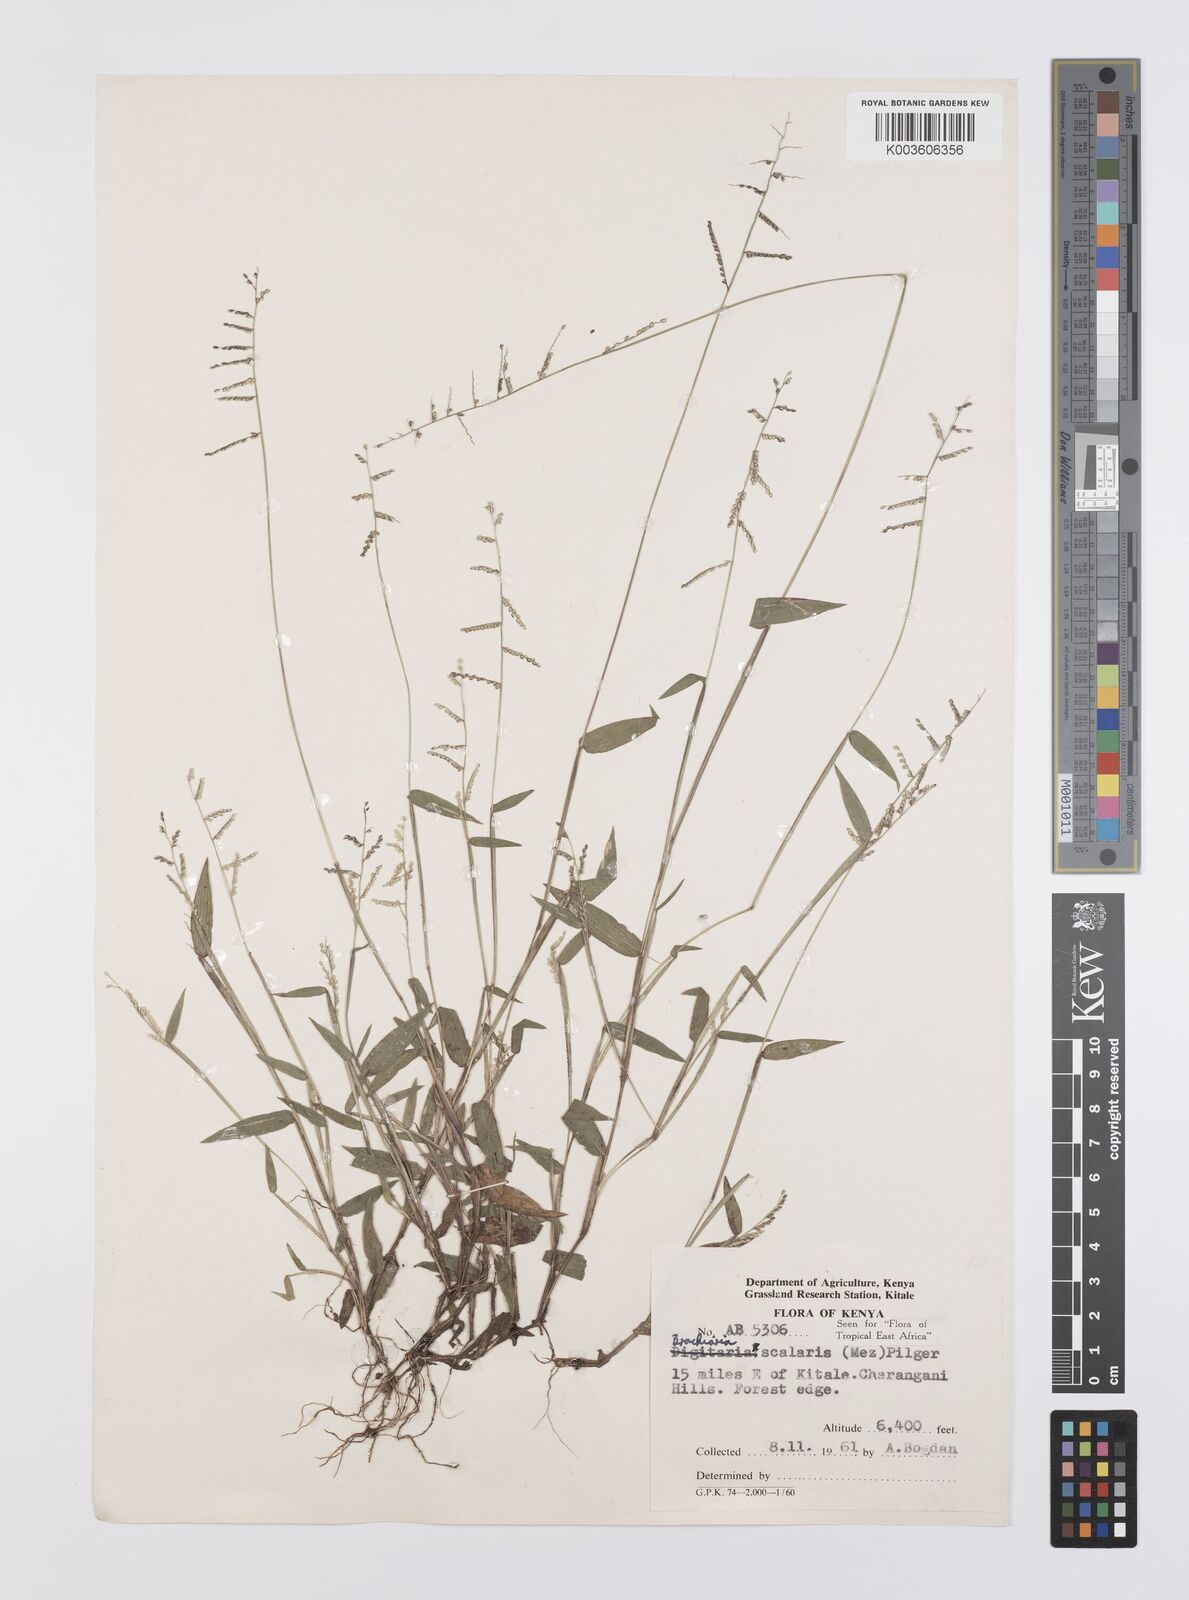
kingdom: Plantae
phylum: Tracheophyta
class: Liliopsida
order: Poales
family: Poaceae
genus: Urochloa
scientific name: Urochloa comata
